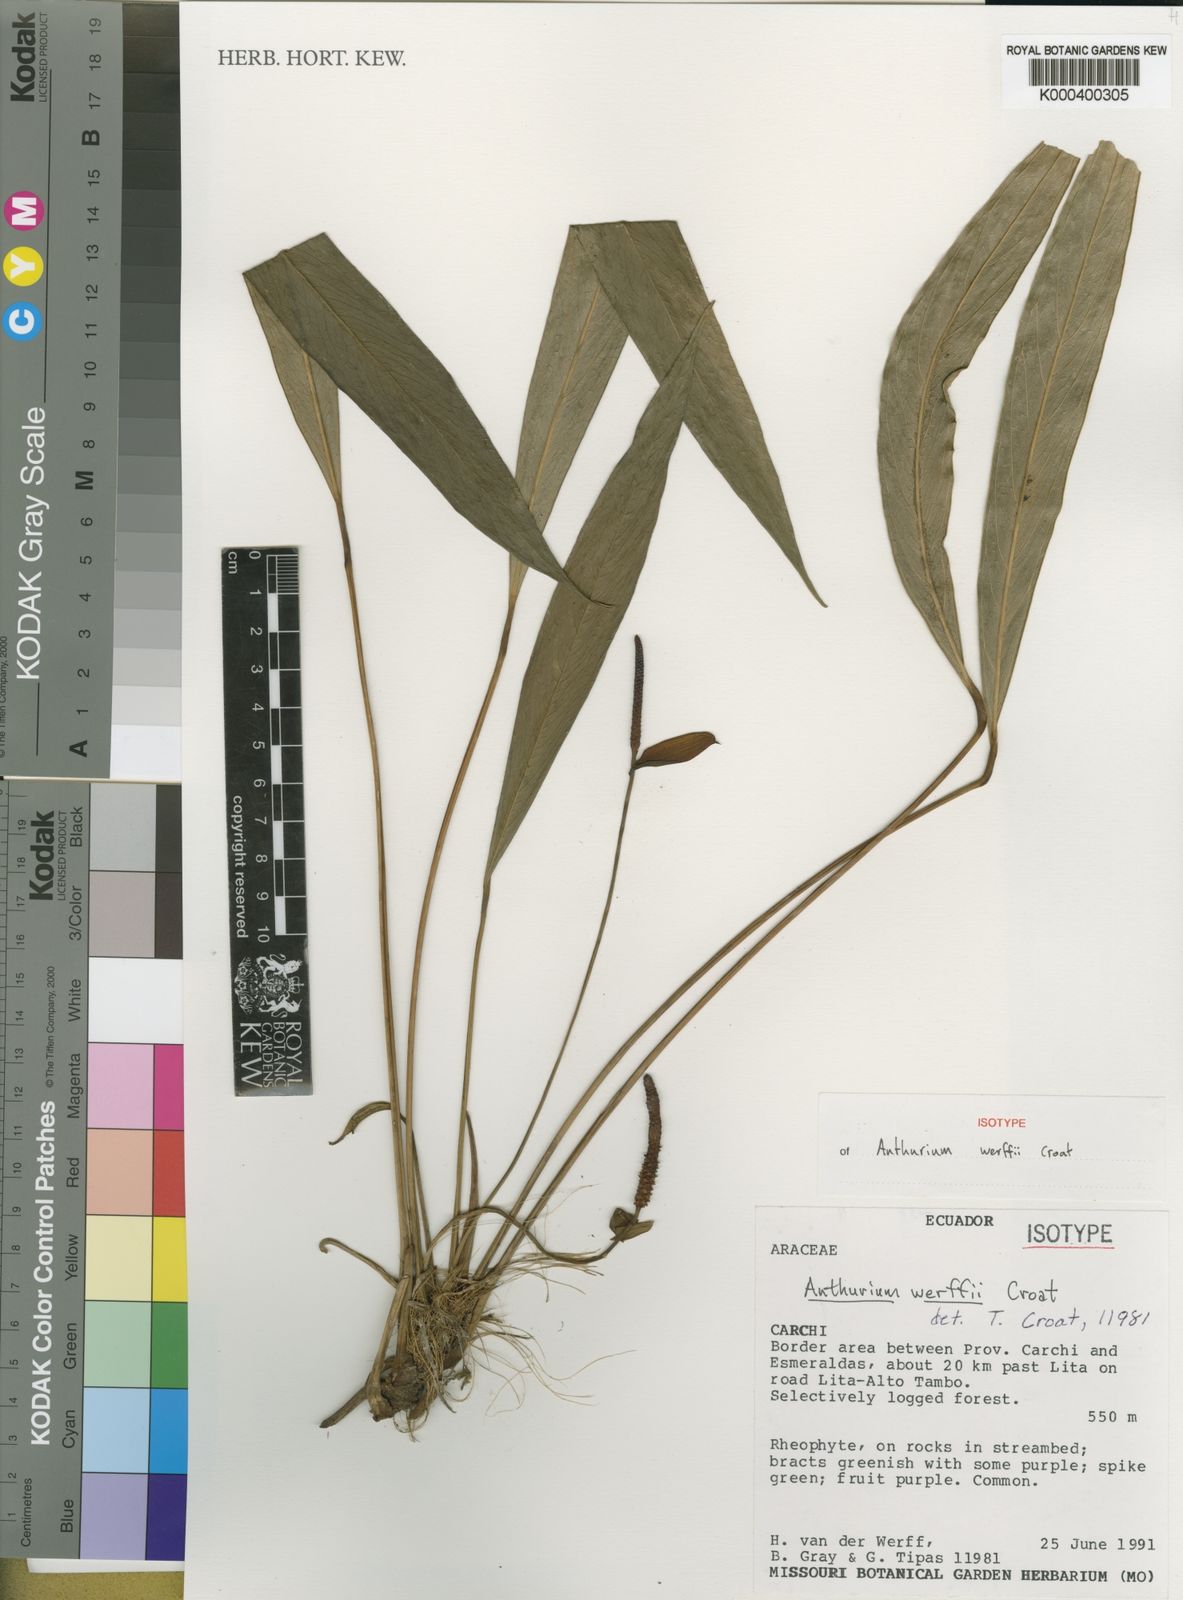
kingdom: Plantae
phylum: Tracheophyta
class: Liliopsida
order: Alismatales
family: Araceae
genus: Anthurium
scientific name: Anthurium werffii
